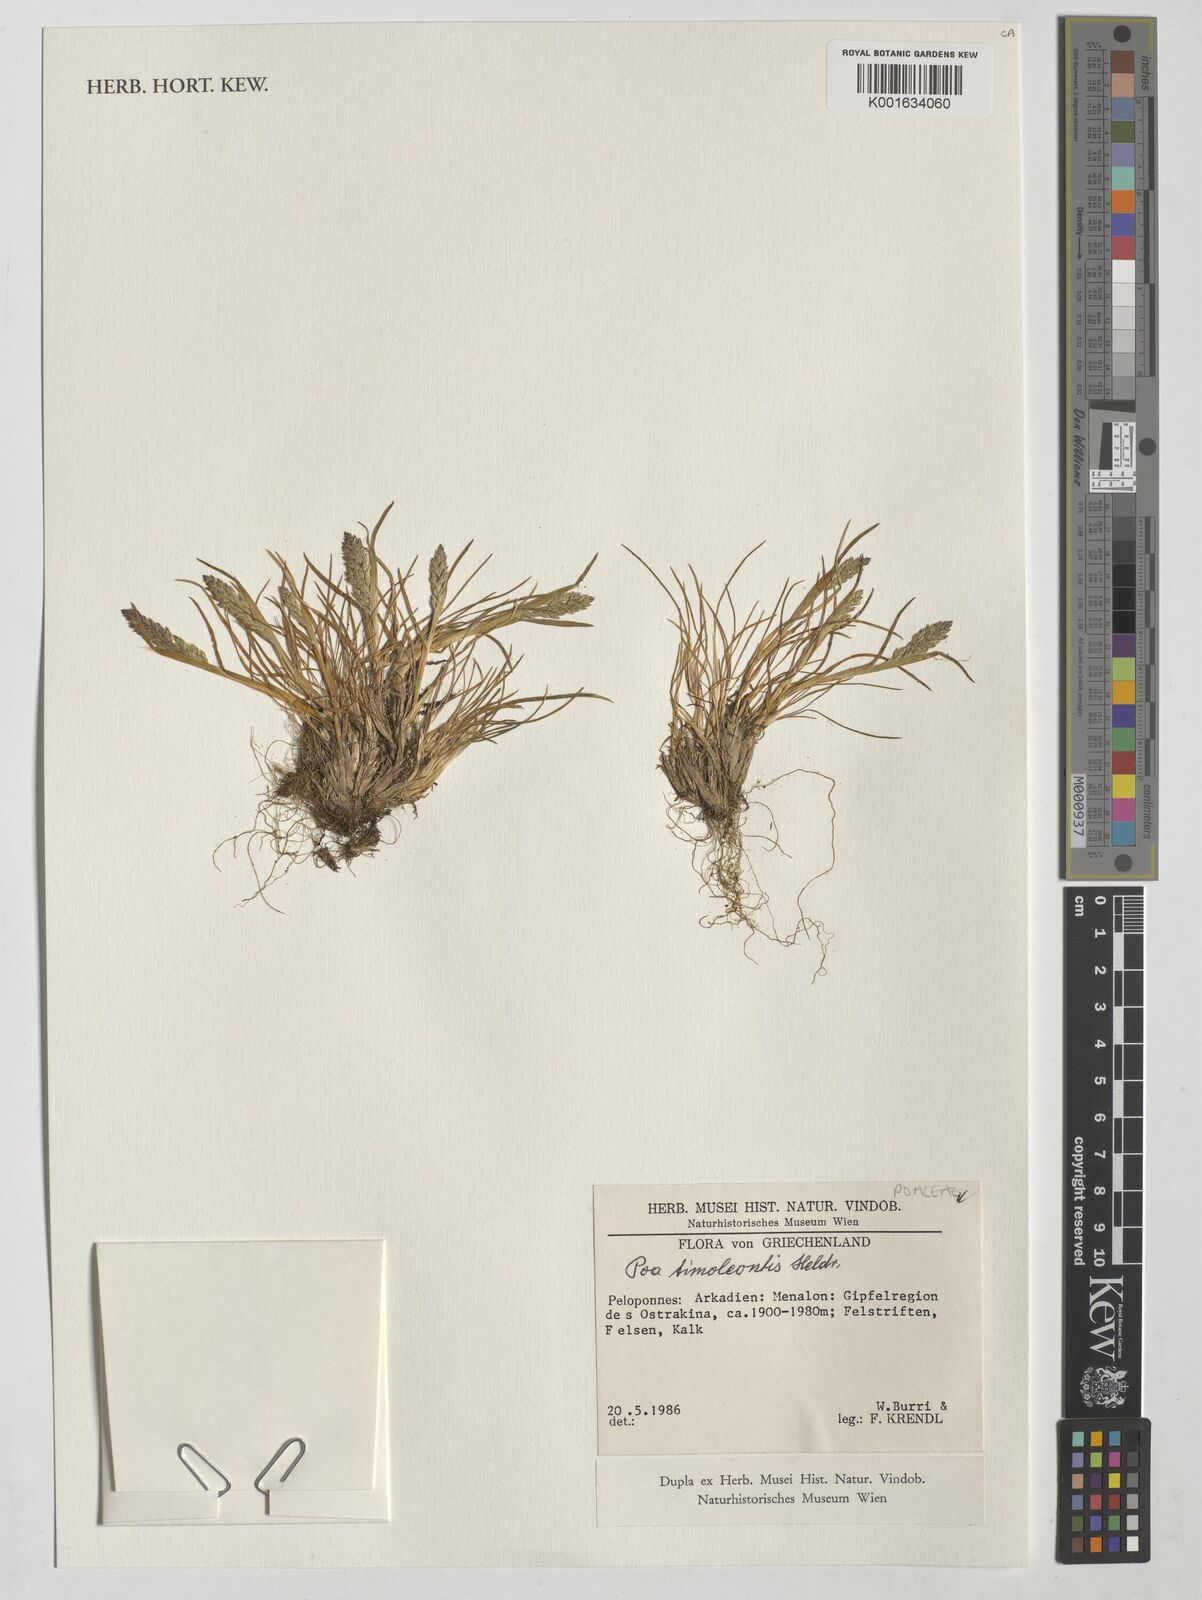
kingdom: Plantae
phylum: Tracheophyta
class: Liliopsida
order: Poales
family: Poaceae
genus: Poa
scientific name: Poa timoleontis
